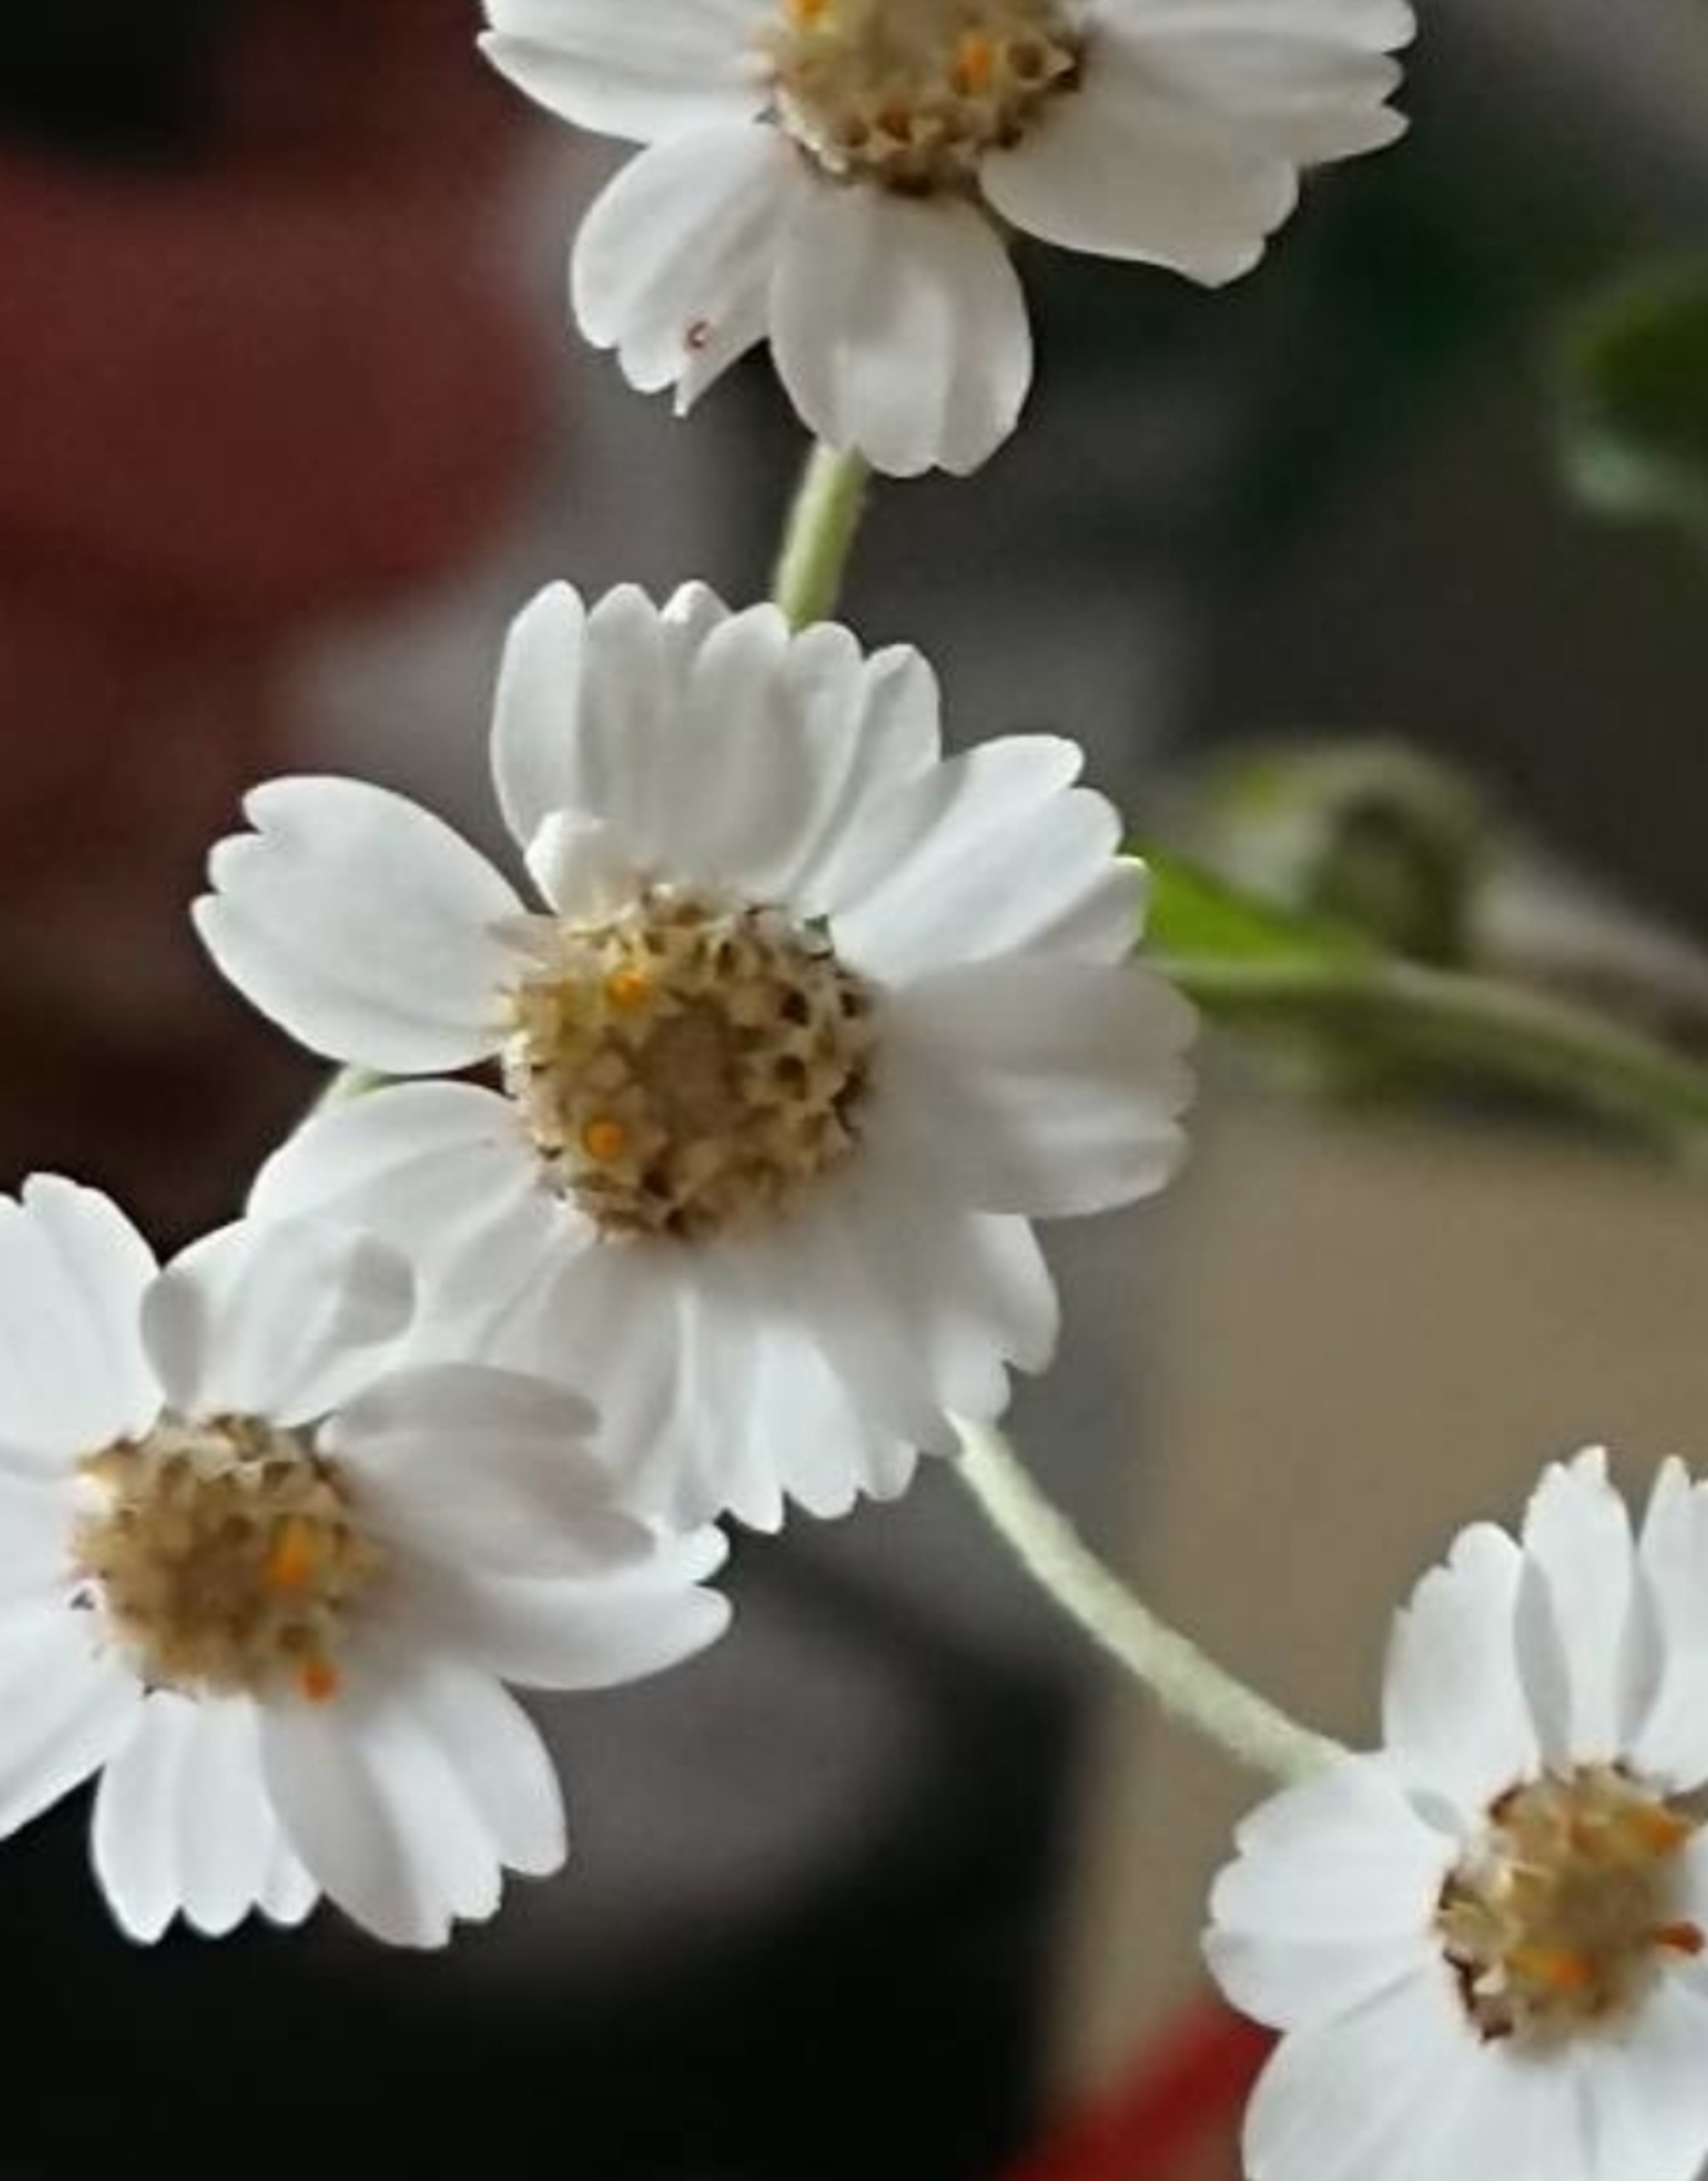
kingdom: Plantae
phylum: Tracheophyta
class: Magnoliopsida
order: Asterales
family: Asteraceae
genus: Achillea
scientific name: Achillea ptarmica
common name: Nyse-røllike
